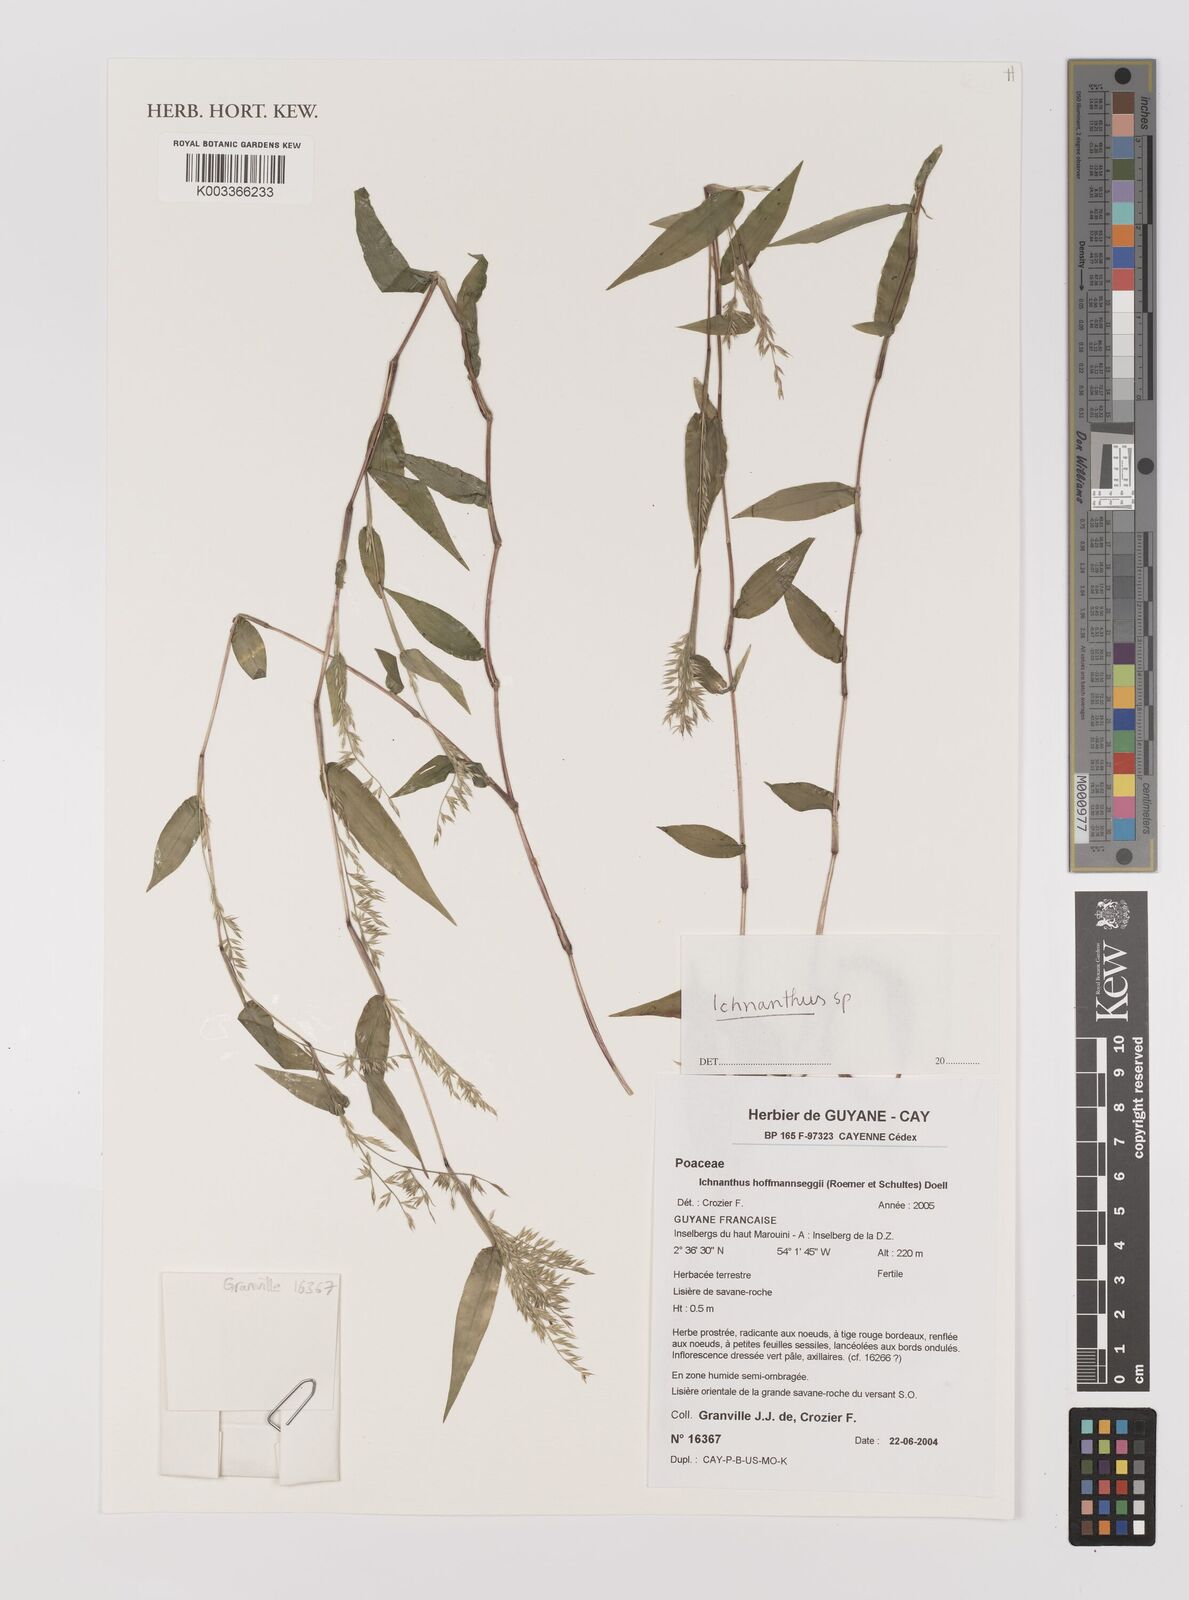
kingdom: Plantae
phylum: Tracheophyta
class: Liliopsida
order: Poales
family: Poaceae
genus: Ichnanthus
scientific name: Ichnanthus
